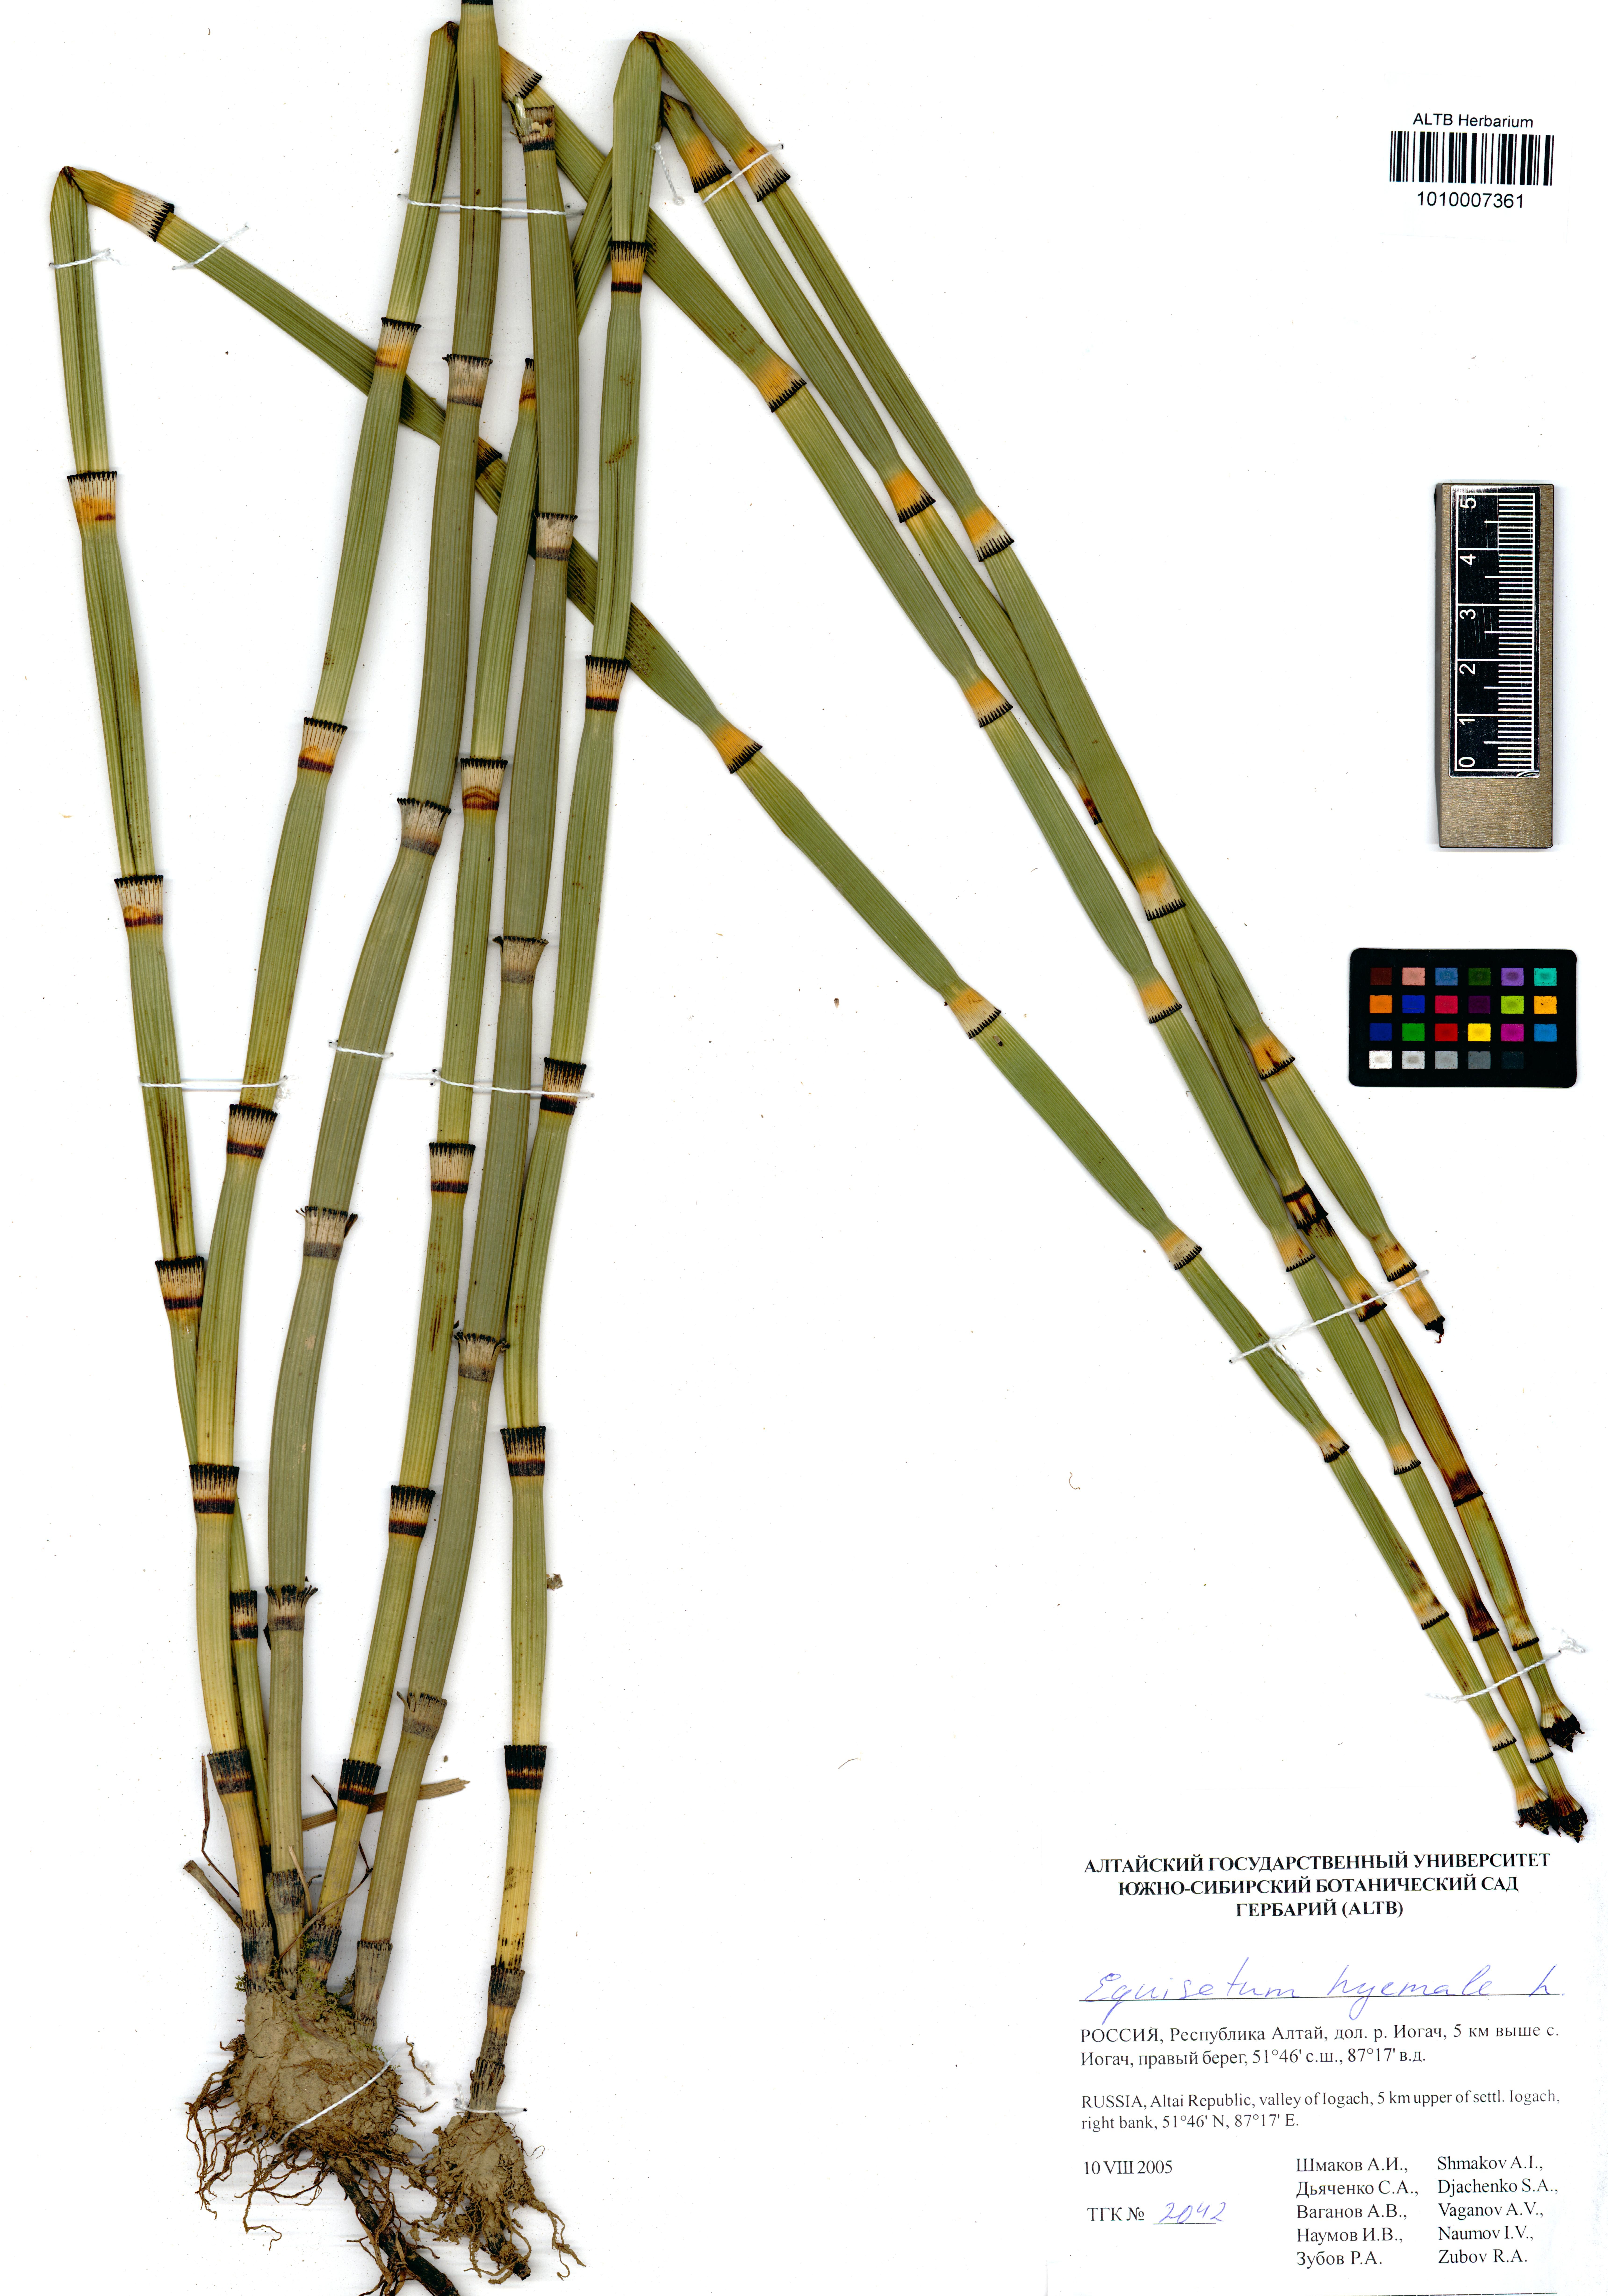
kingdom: Plantae
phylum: Tracheophyta
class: Polypodiopsida
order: Equisetales
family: Equisetaceae
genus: Equisetum
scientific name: Equisetum hyemale
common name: Rough horsetail
